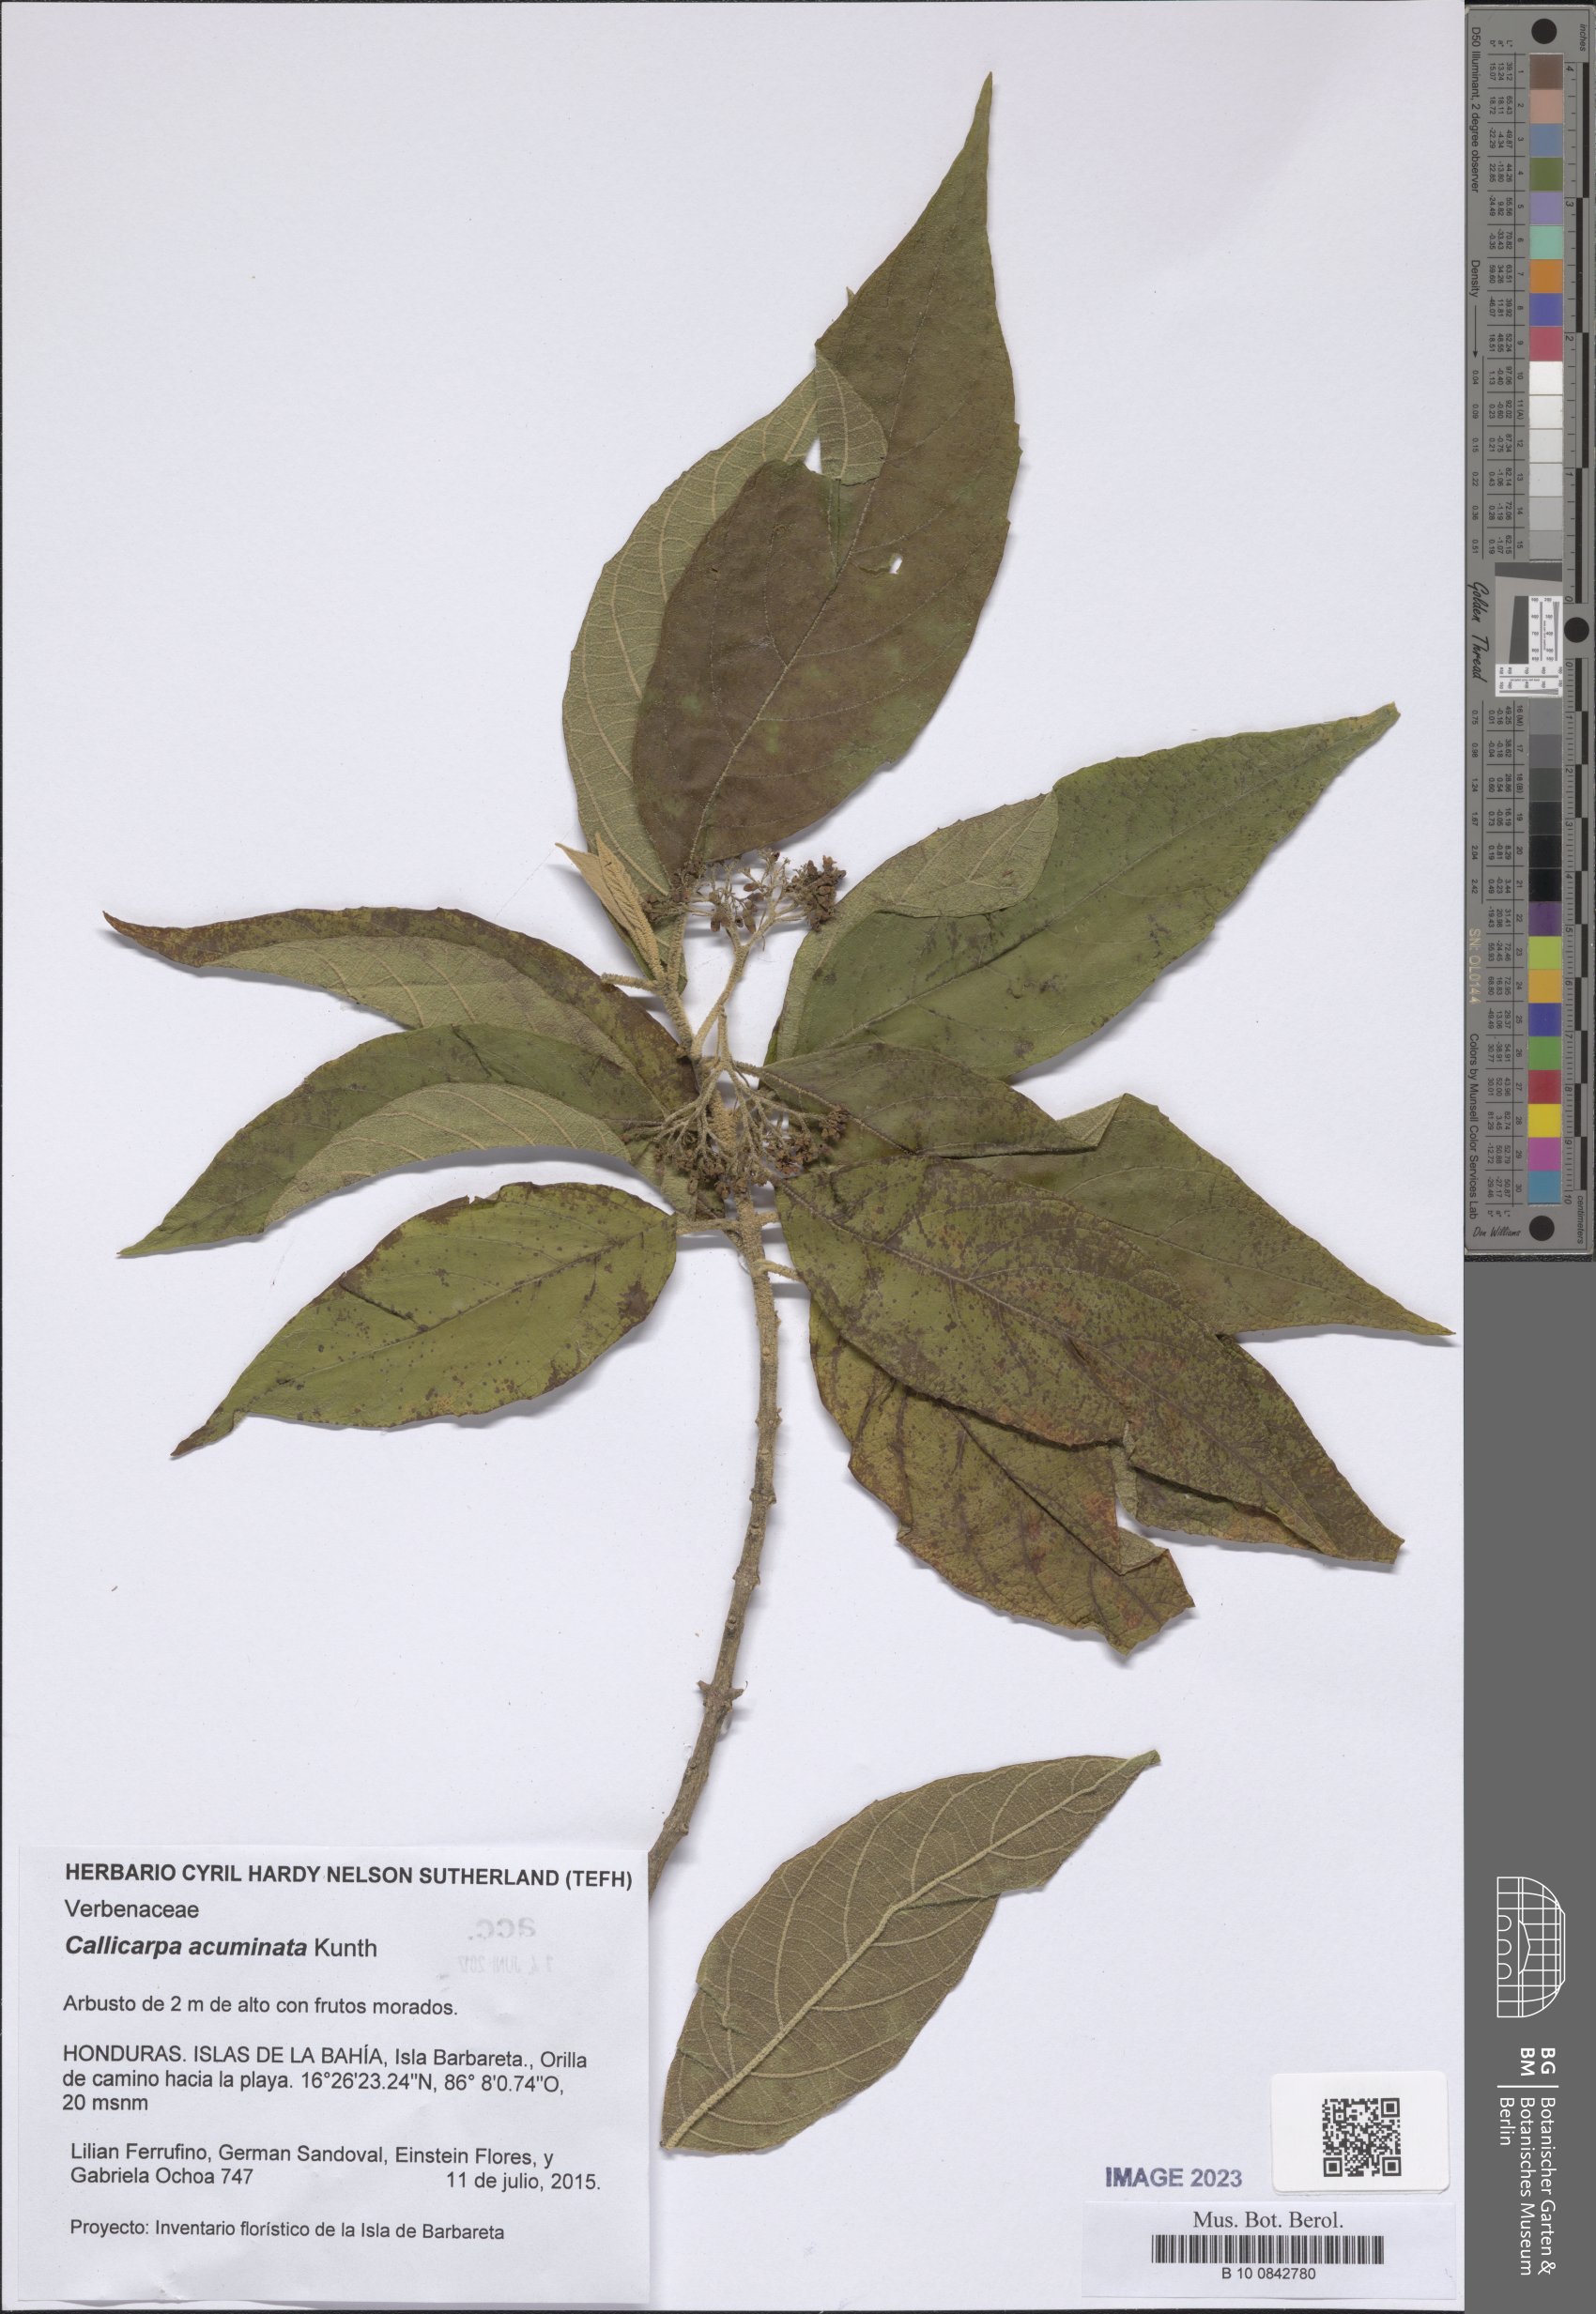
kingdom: Plantae
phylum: Tracheophyta
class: Magnoliopsida
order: Lamiales
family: Lamiaceae
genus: Callicarpa
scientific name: Callicarpa acuminata
